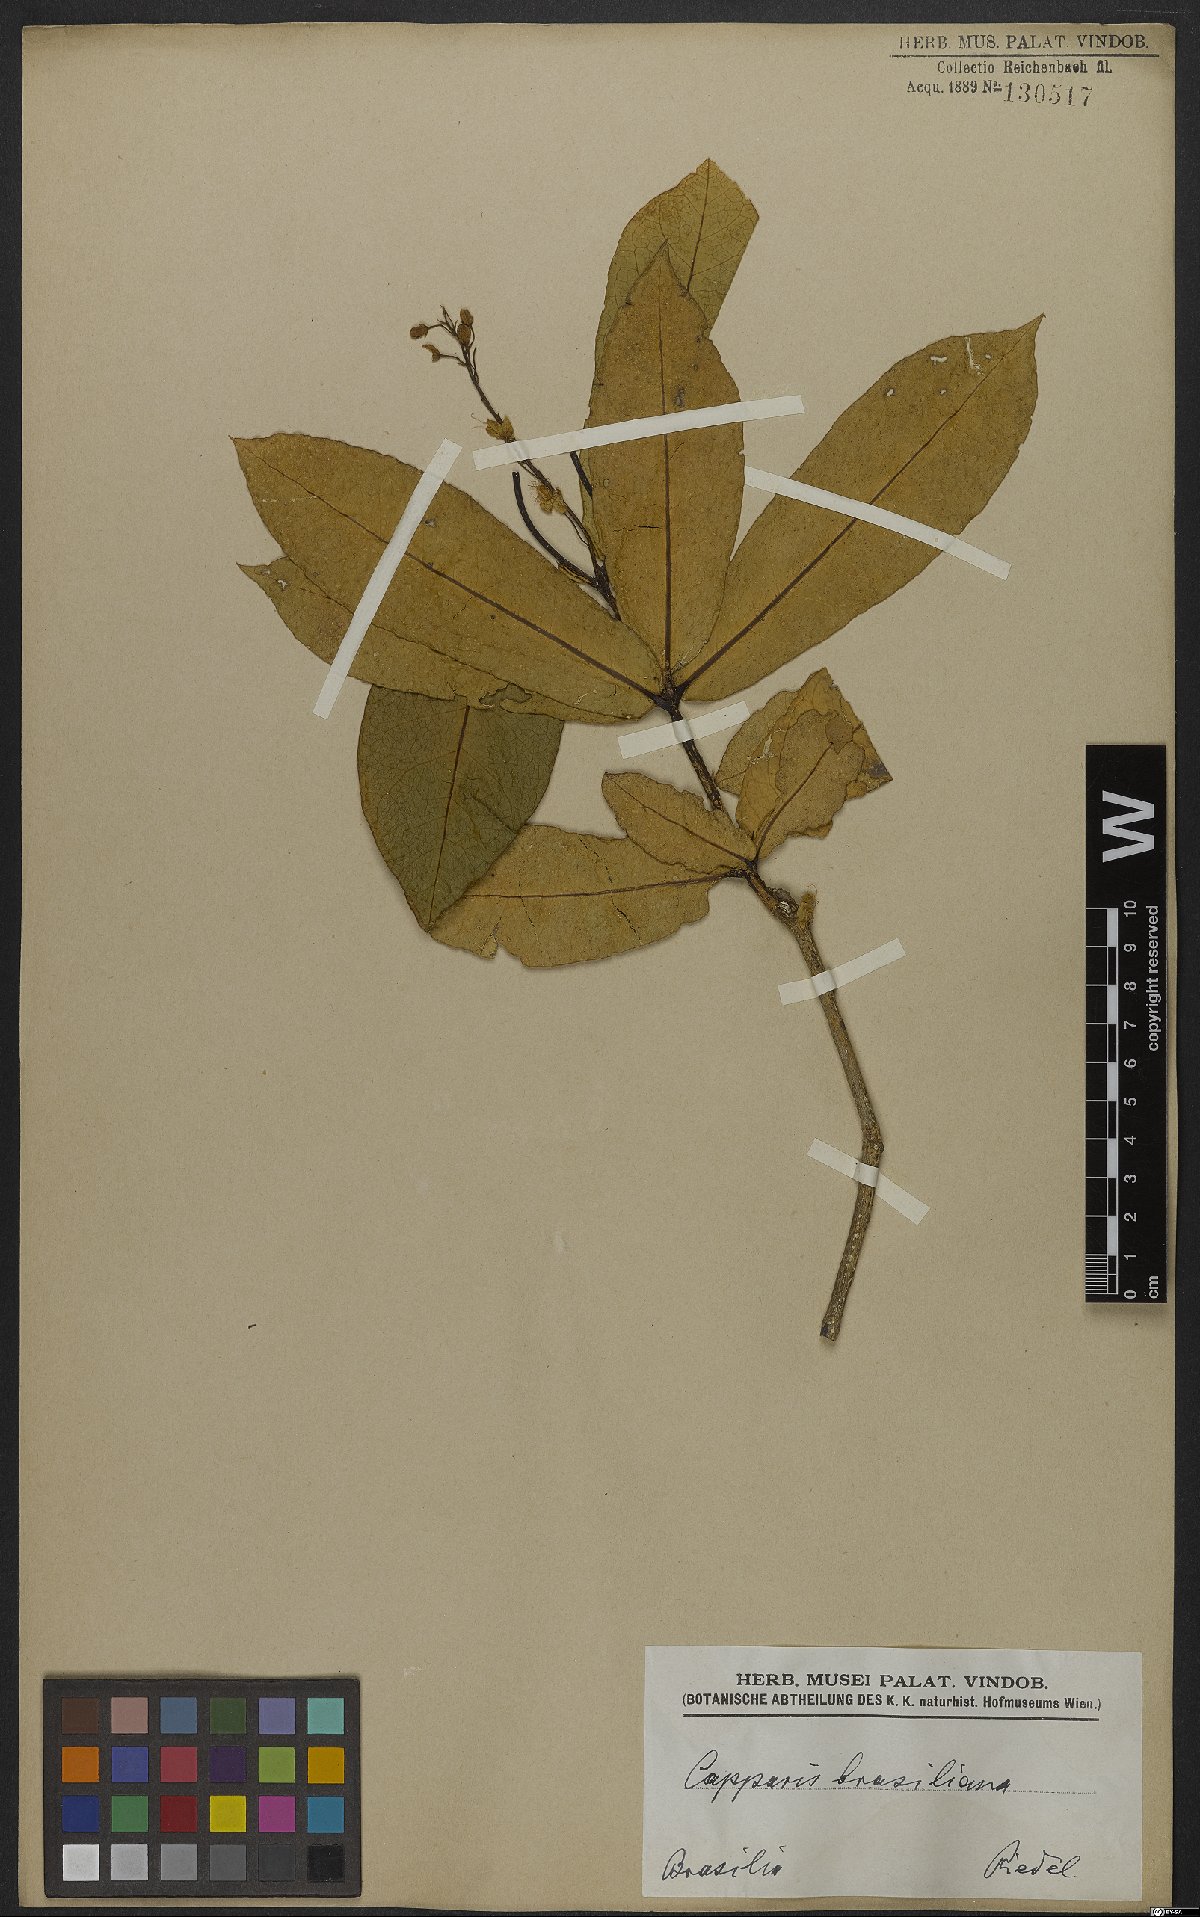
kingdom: Plantae
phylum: Tracheophyta
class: Magnoliopsida
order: Brassicales
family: Capparaceae
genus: Monilicarpa
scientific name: Monilicarpa brasiliana
